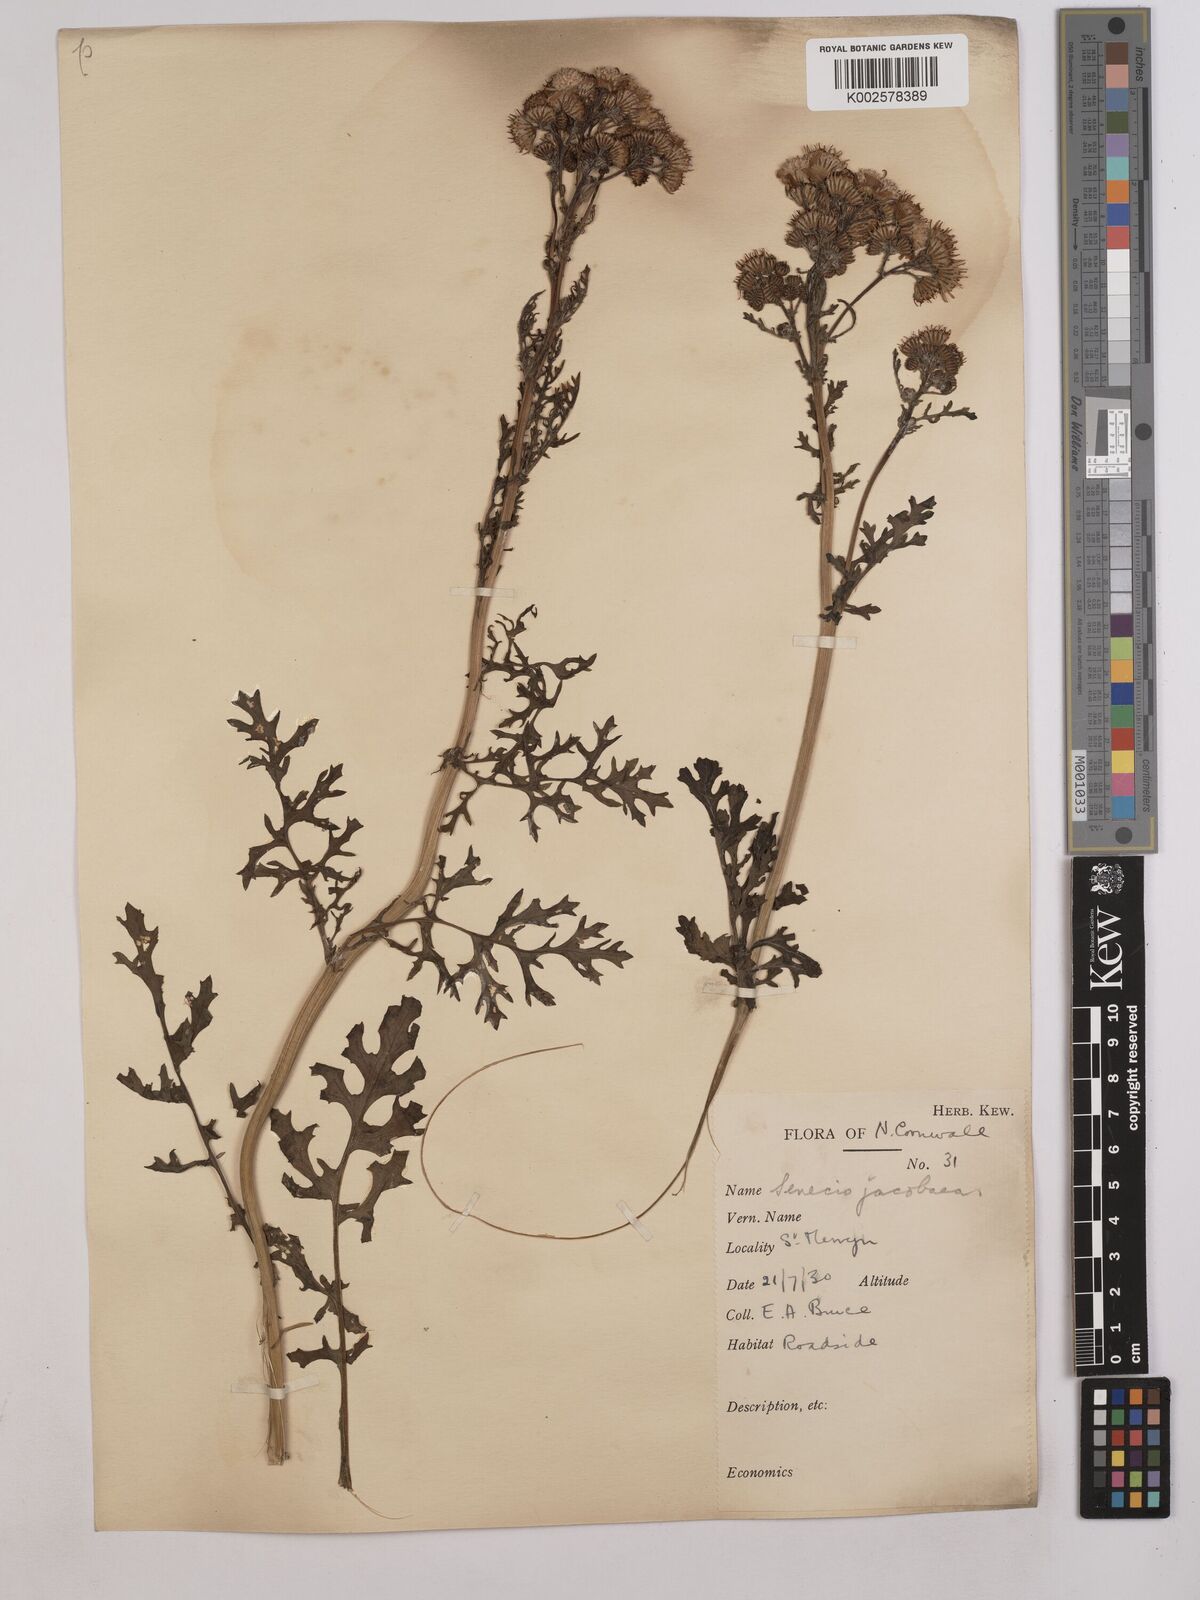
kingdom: Plantae
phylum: Tracheophyta
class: Magnoliopsida
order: Asterales
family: Asteraceae
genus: Jacobaea
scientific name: Jacobaea vulgaris
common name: Stinking willie
